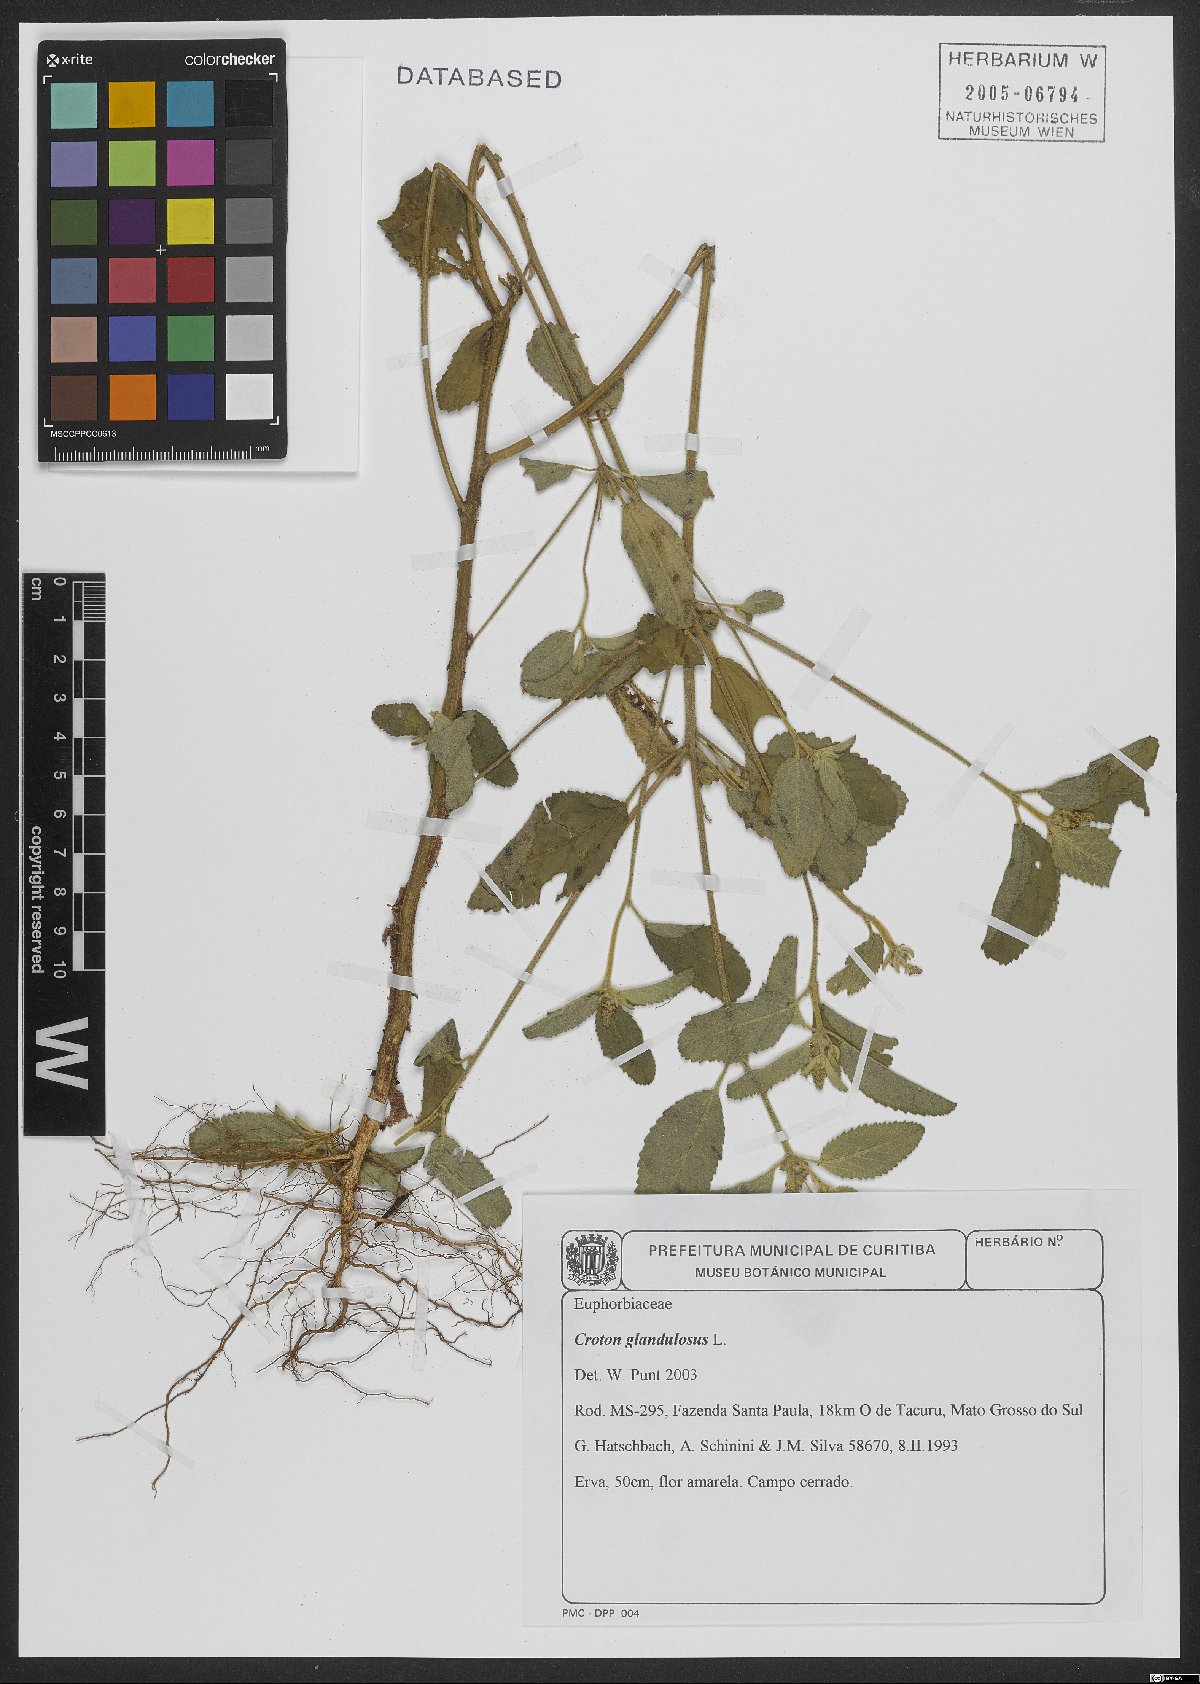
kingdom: Plantae
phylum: Tracheophyta
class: Magnoliopsida
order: Malpighiales
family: Euphorbiaceae
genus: Croton
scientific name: Croton glandulosus
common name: Tropic croton
